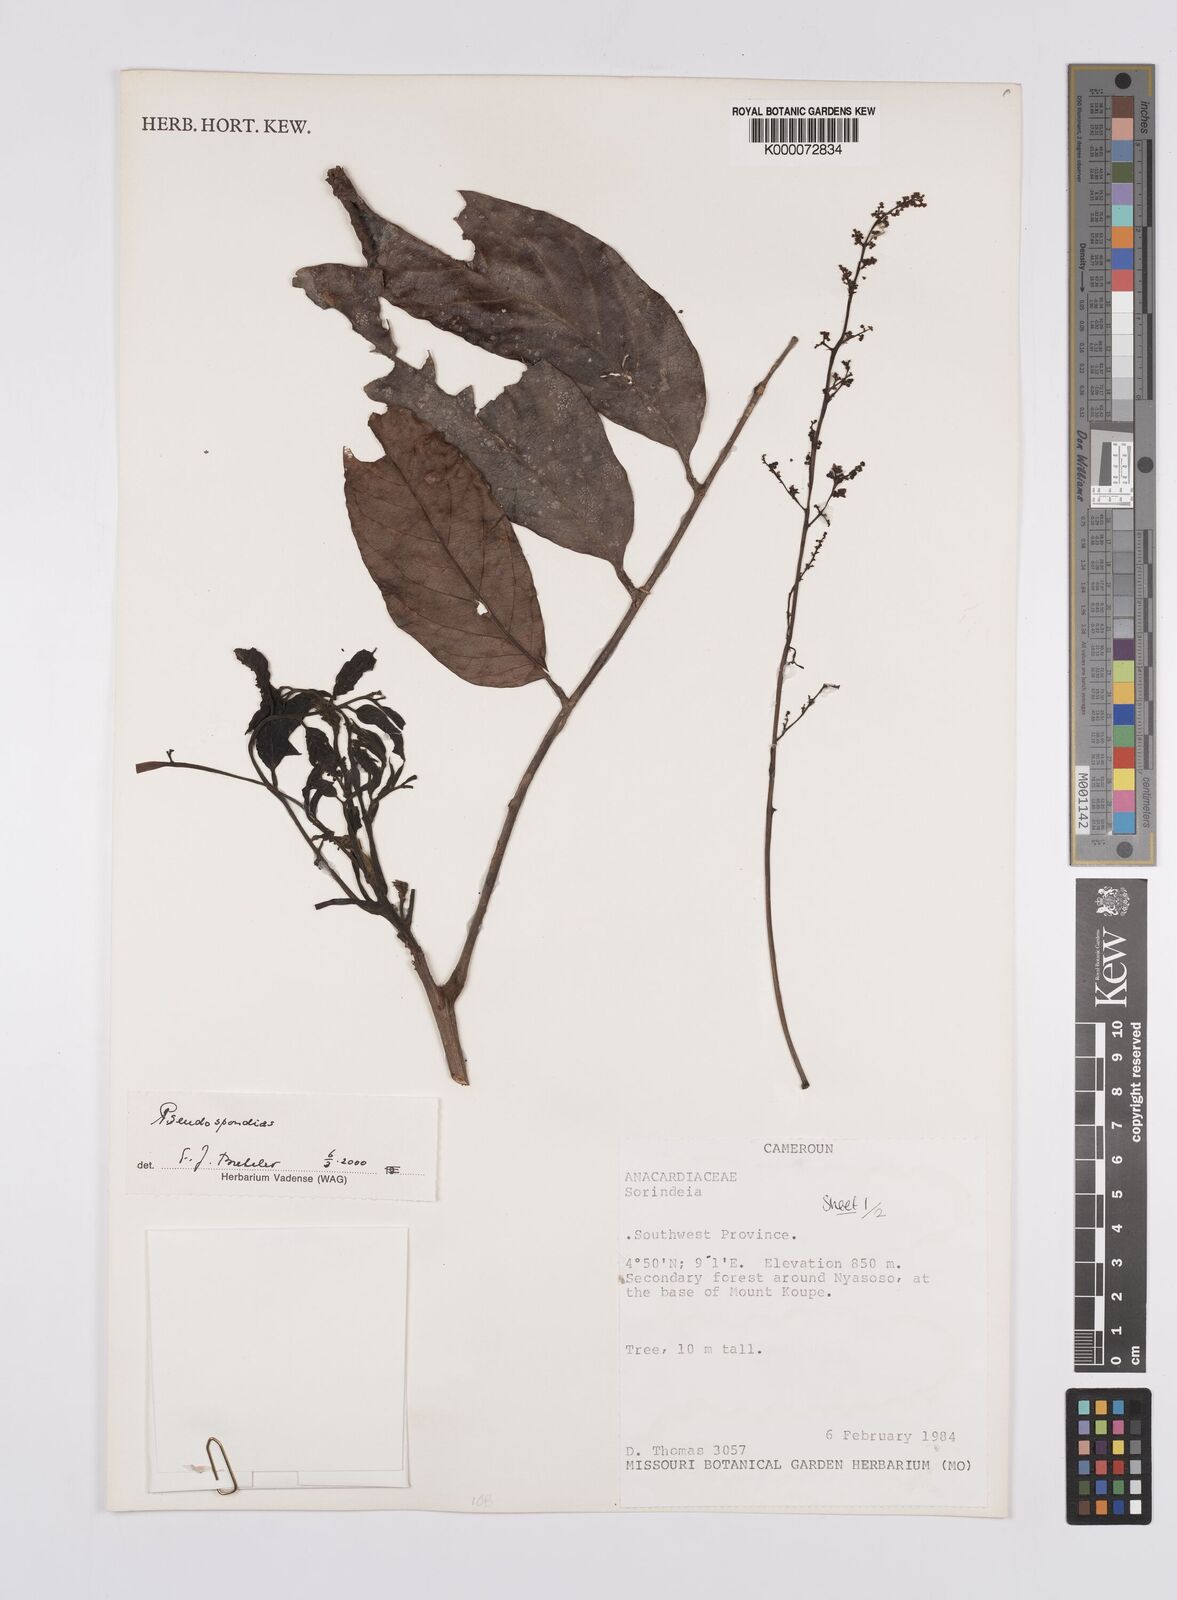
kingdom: Plantae
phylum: Tracheophyta
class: Magnoliopsida
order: Sapindales
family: Anacardiaceae
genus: Pseudospondias
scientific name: Pseudospondias
